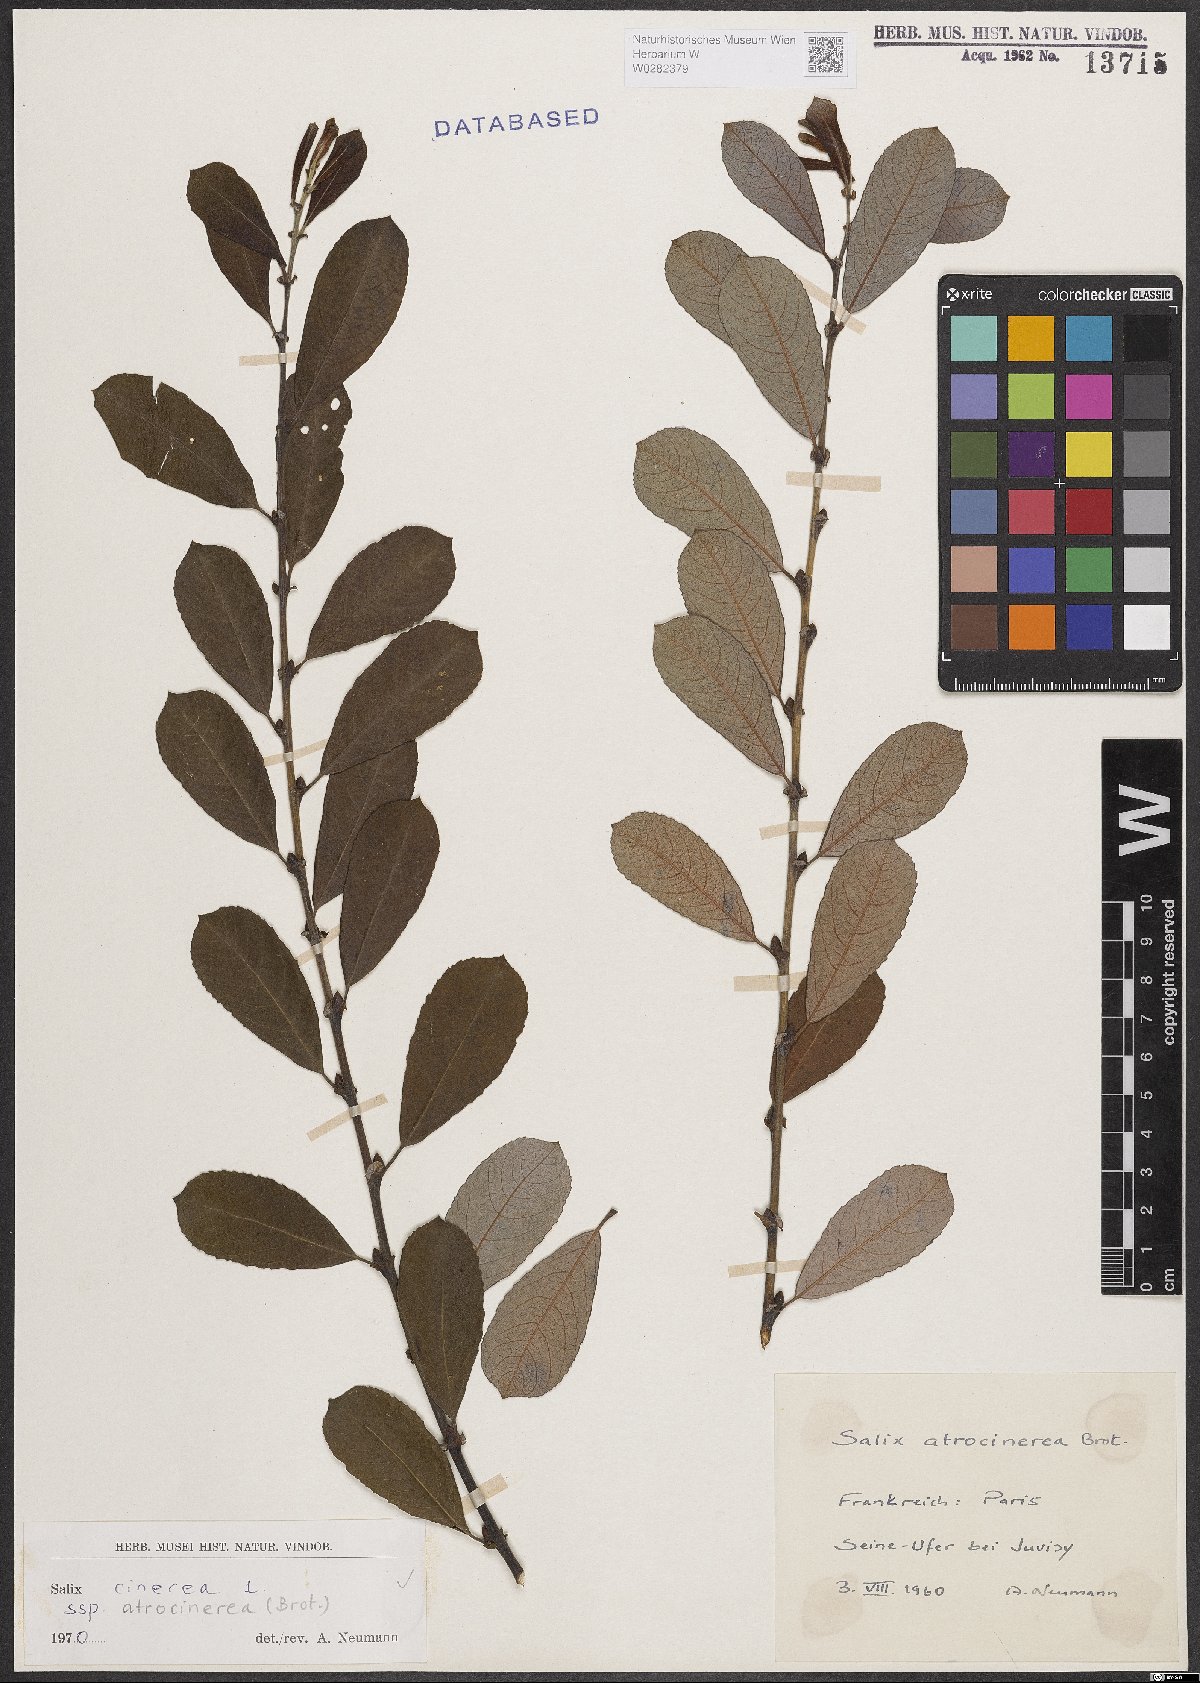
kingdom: Plantae
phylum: Tracheophyta
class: Magnoliopsida
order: Malpighiales
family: Salicaceae
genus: Salix
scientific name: Salix atrocinerea
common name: Rusty willow
